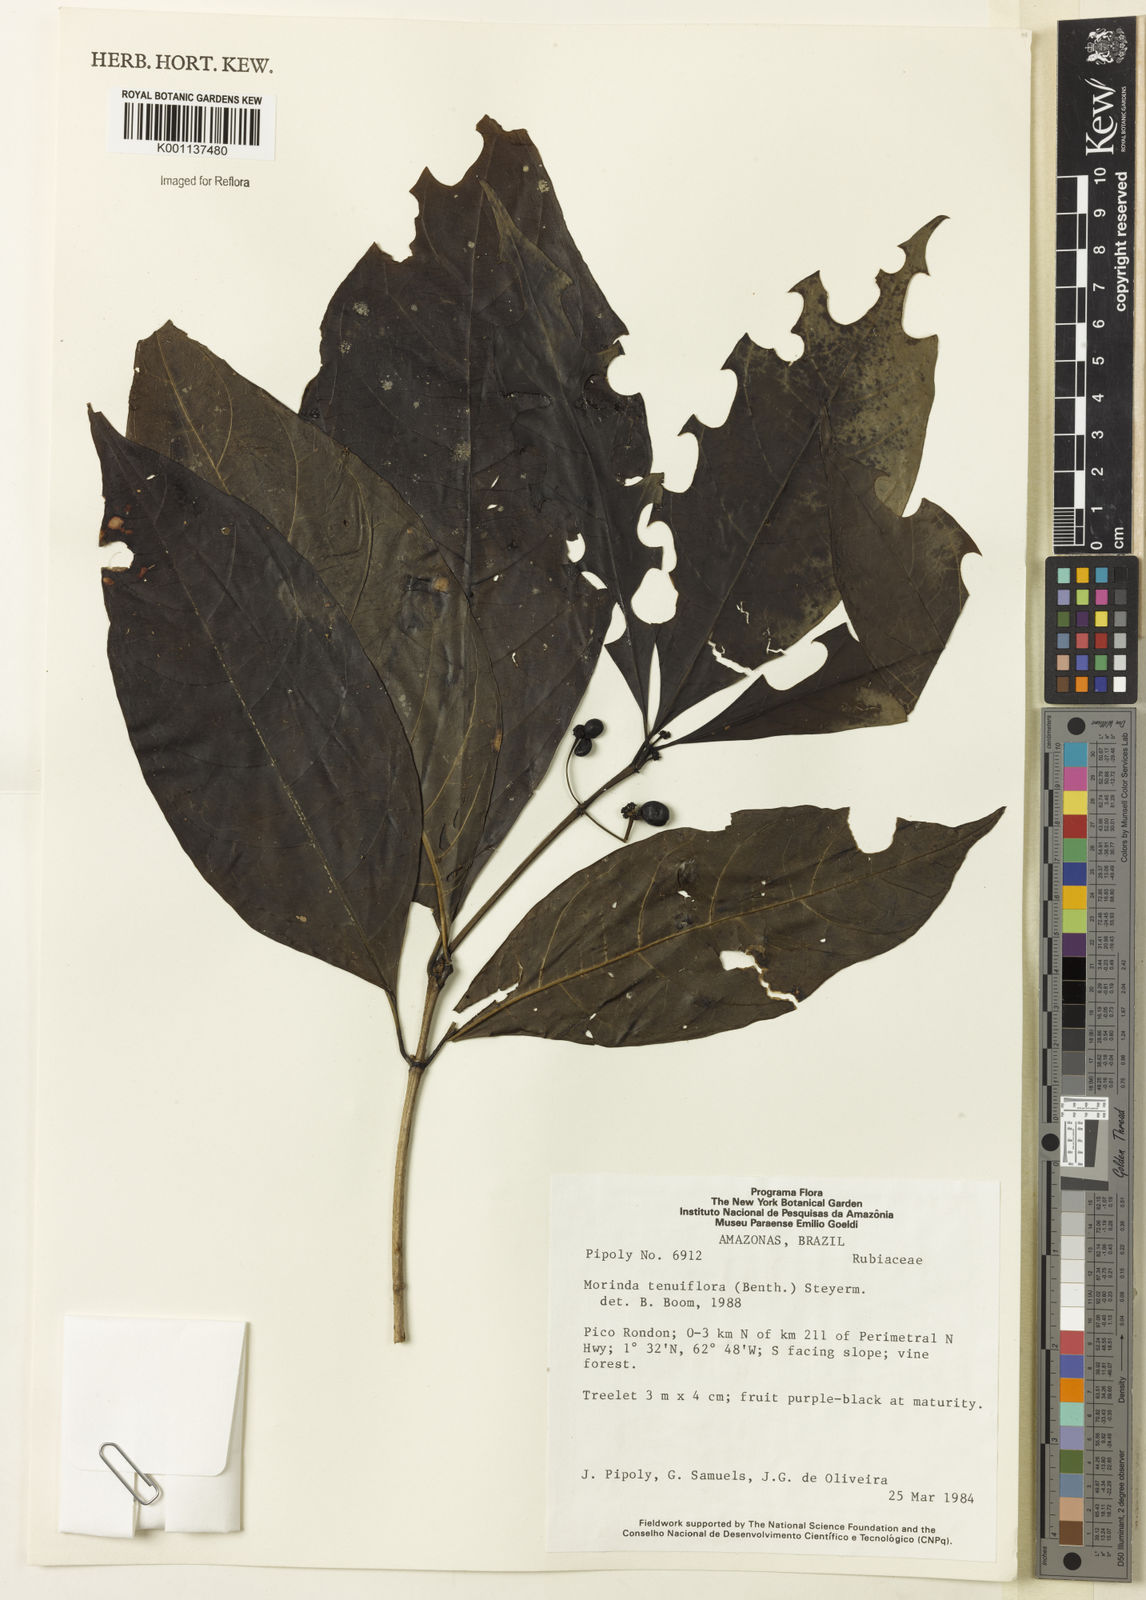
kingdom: Plantae
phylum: Tracheophyta
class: Magnoliopsida
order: Gentianales
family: Rubiaceae
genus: Appunia
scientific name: Appunia tenuiflora
